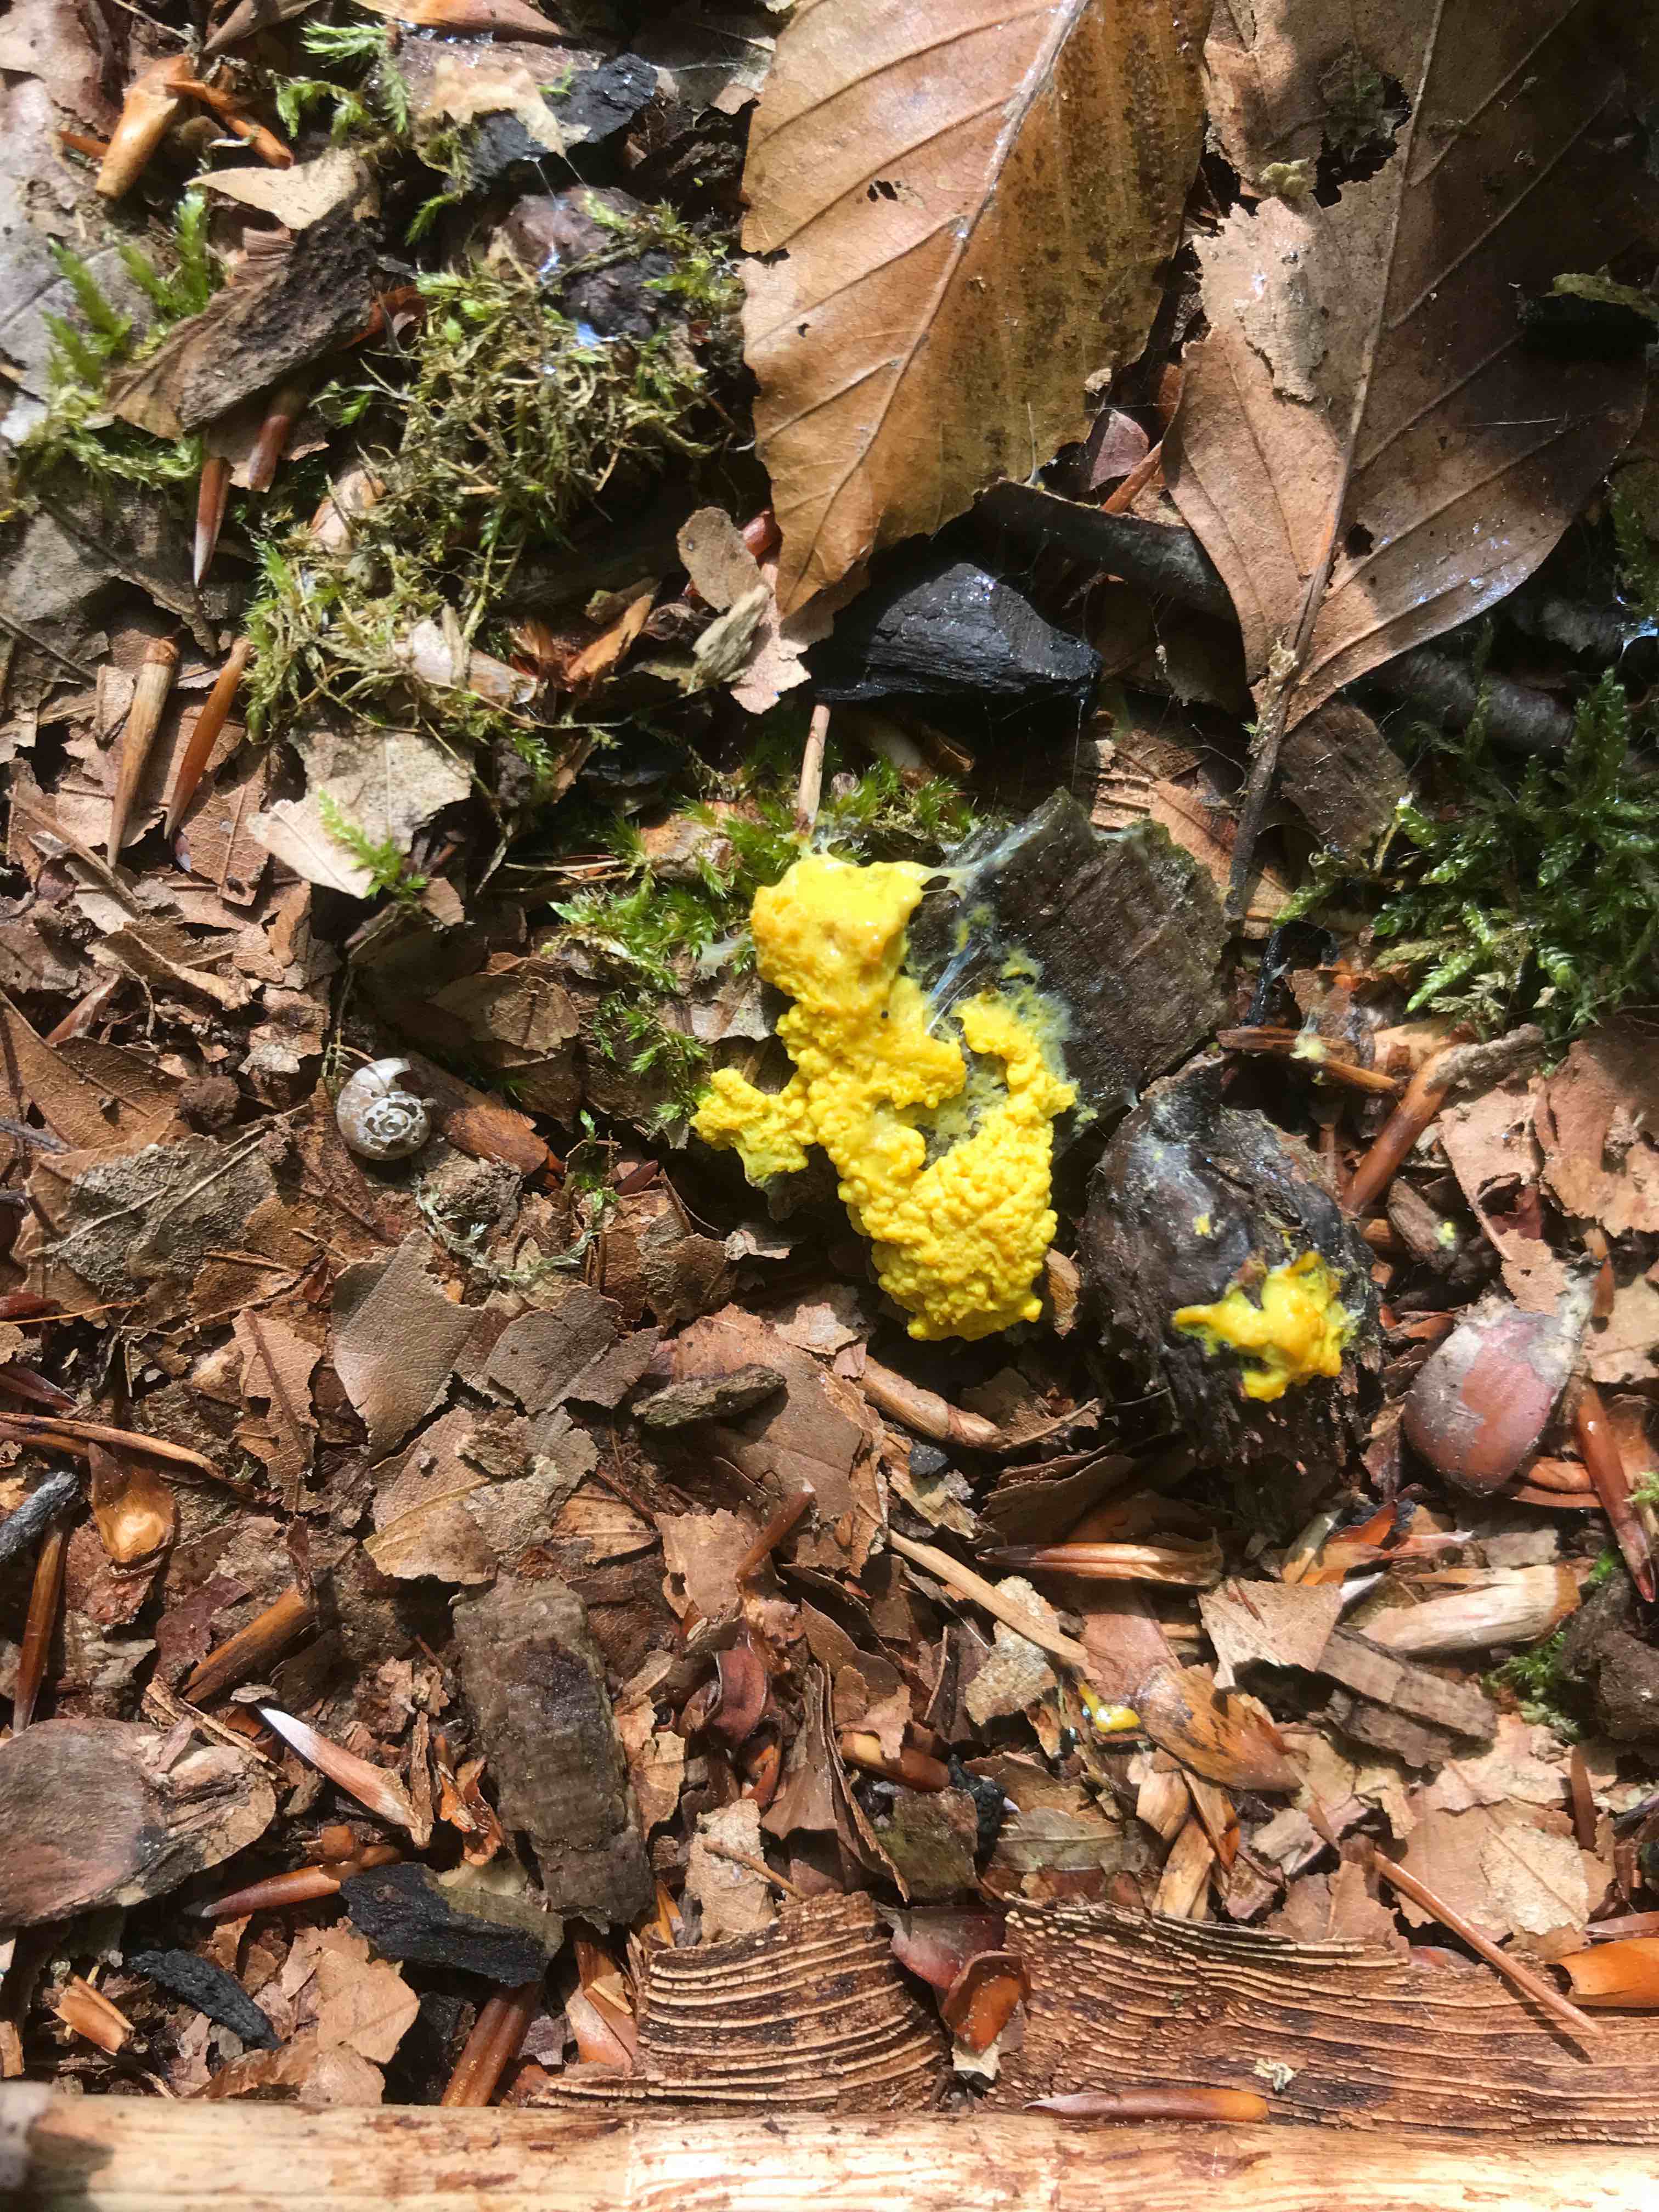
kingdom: Protozoa
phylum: Mycetozoa
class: Myxomycetes
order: Physarales
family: Physaraceae
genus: Fuligo
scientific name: Fuligo septica
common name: gul troldsmør
